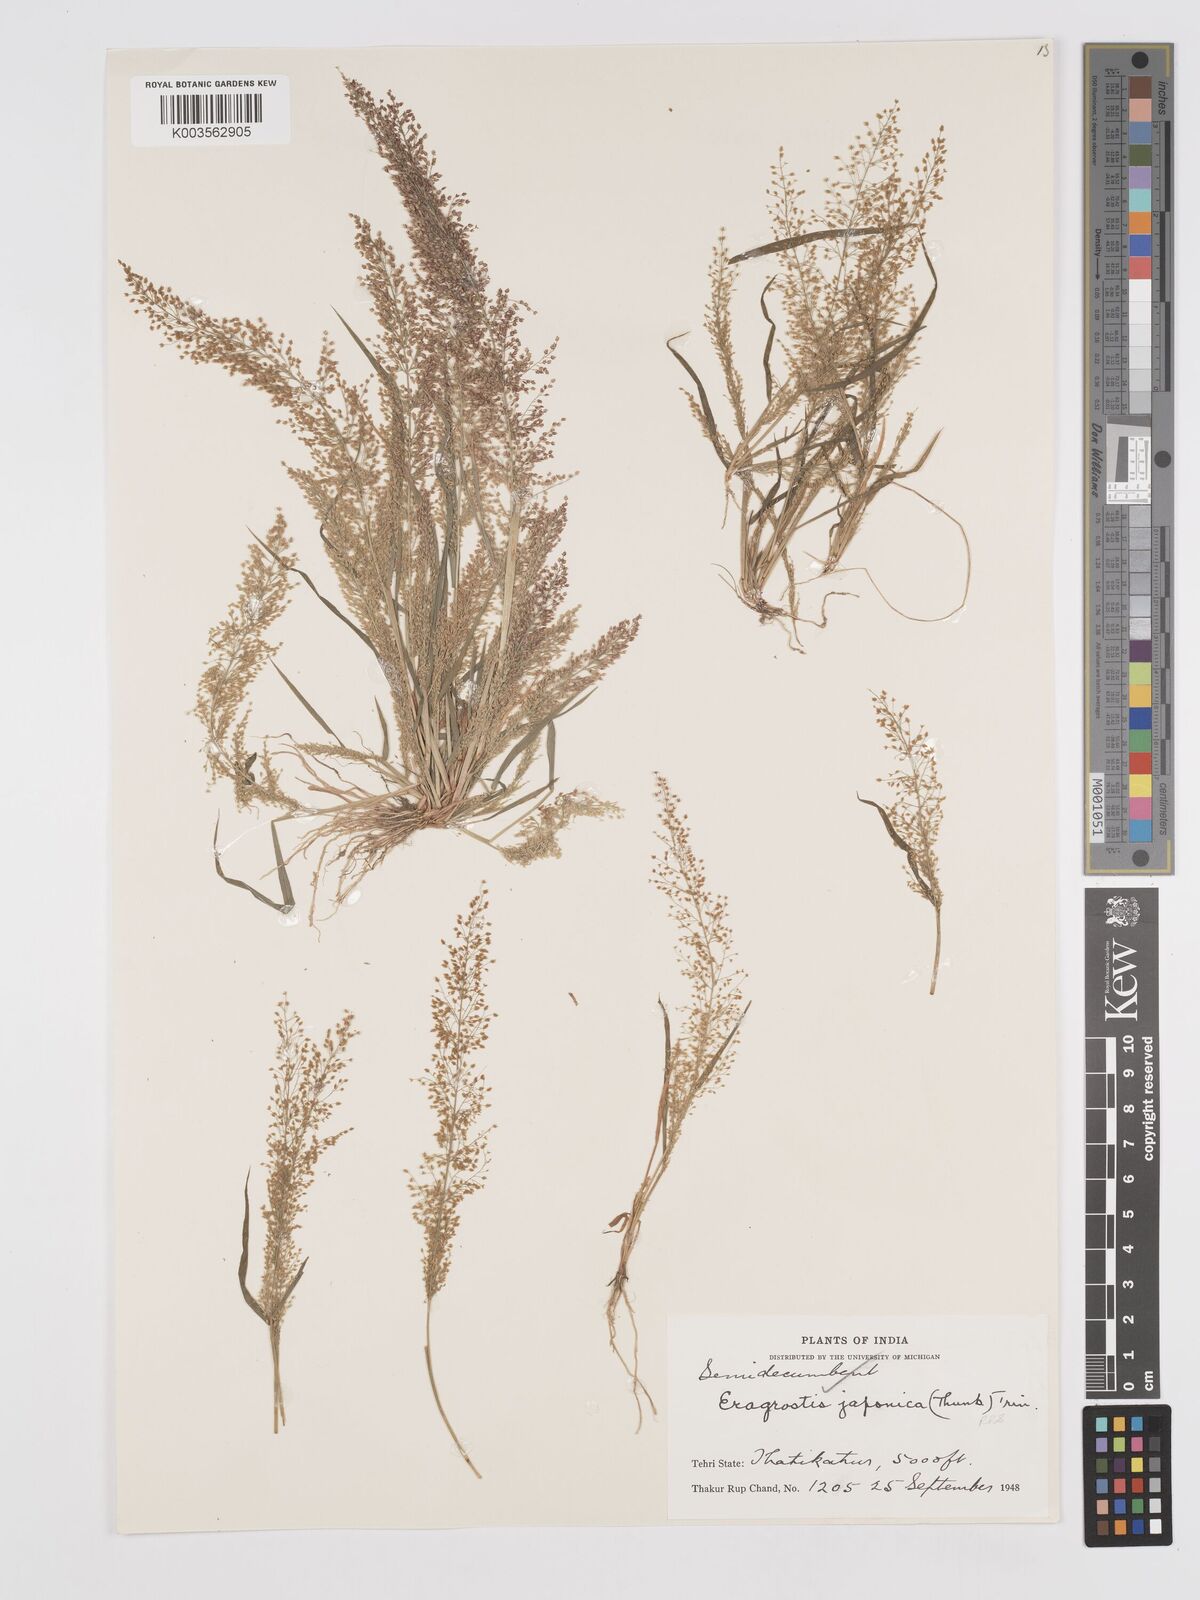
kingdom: Plantae
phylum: Tracheophyta
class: Liliopsida
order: Poales
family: Poaceae
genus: Eragrostis
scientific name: Eragrostis japonica
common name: Pond lovegrass
